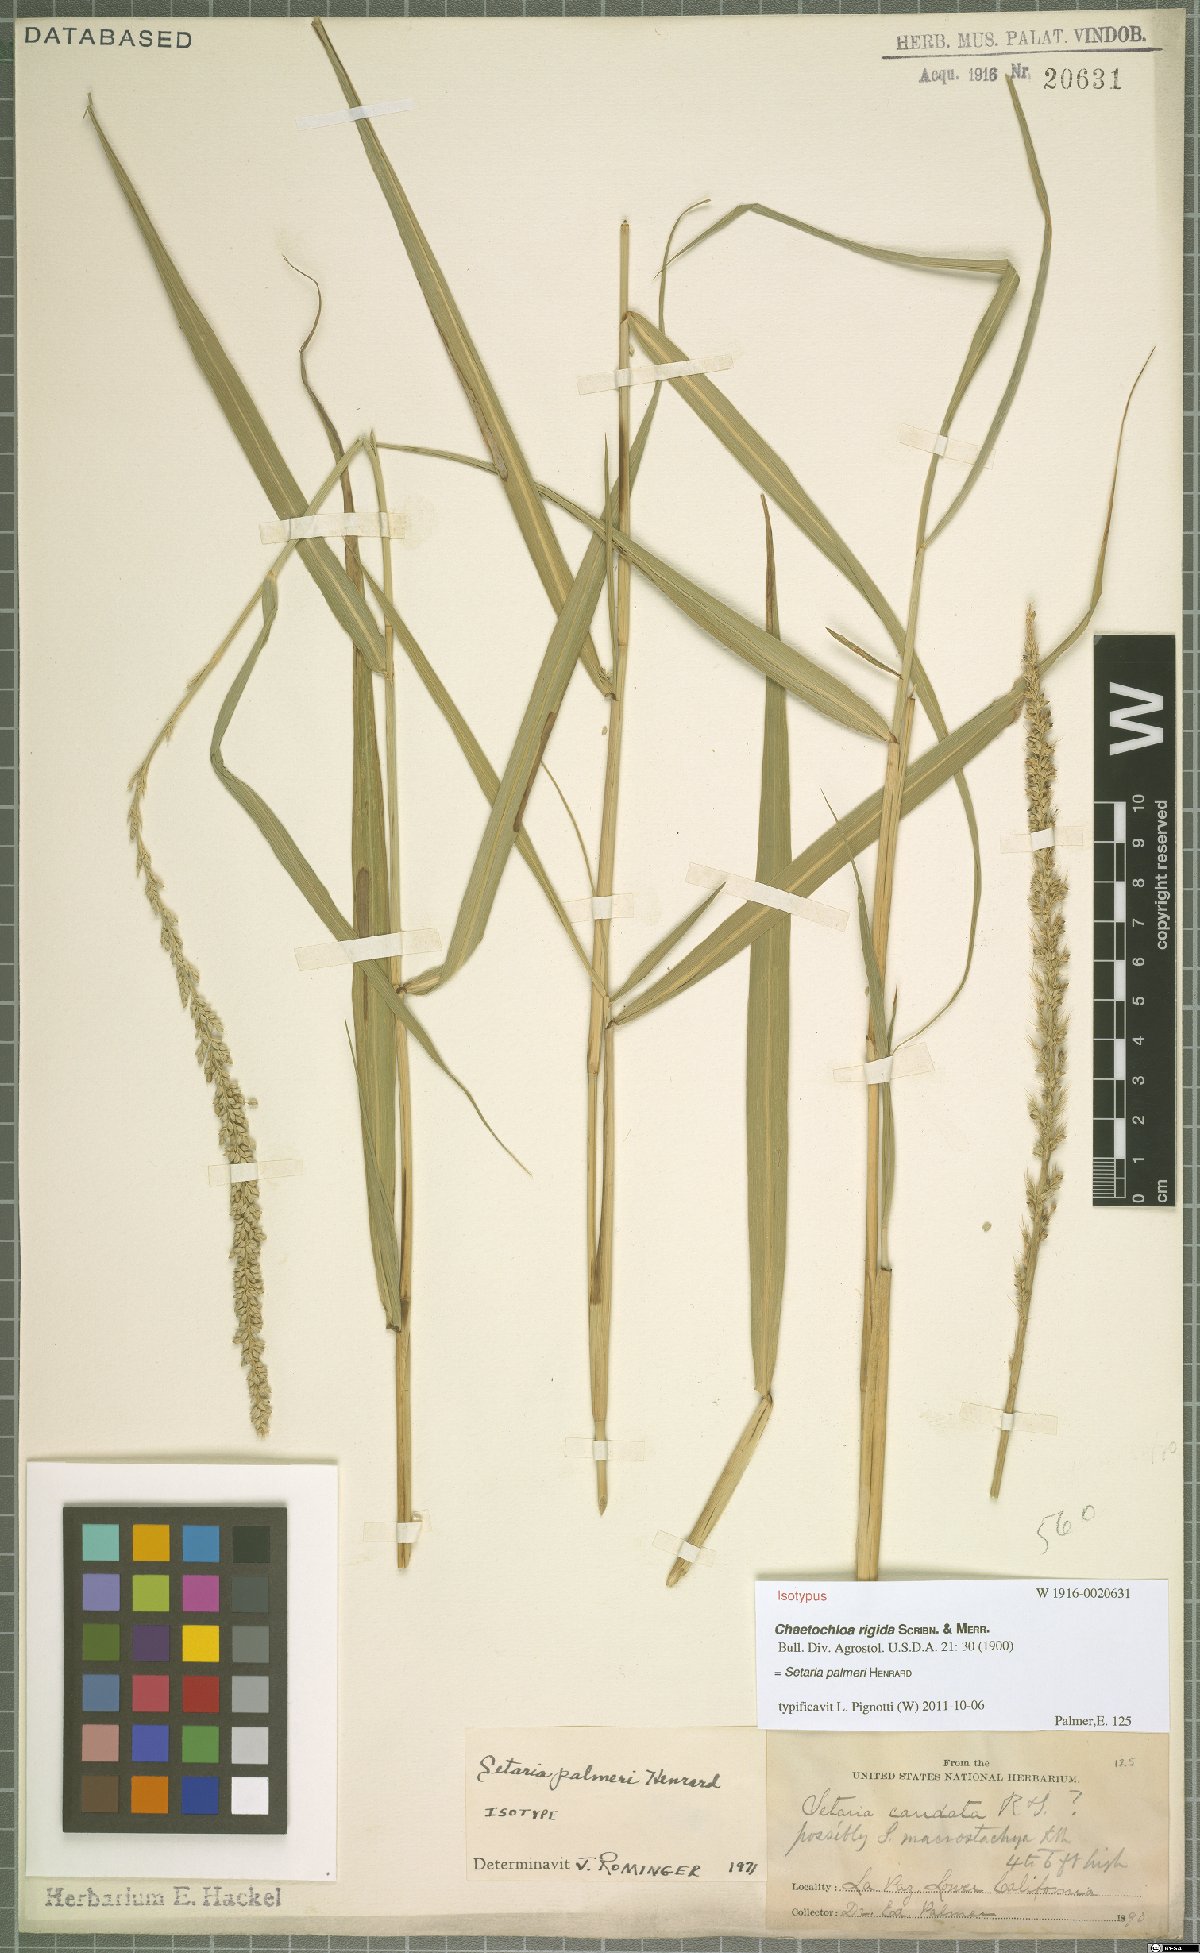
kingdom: Plantae
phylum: Tracheophyta
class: Liliopsida
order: Poales
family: Poaceae
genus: Setaria
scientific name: Setaria palmeri
